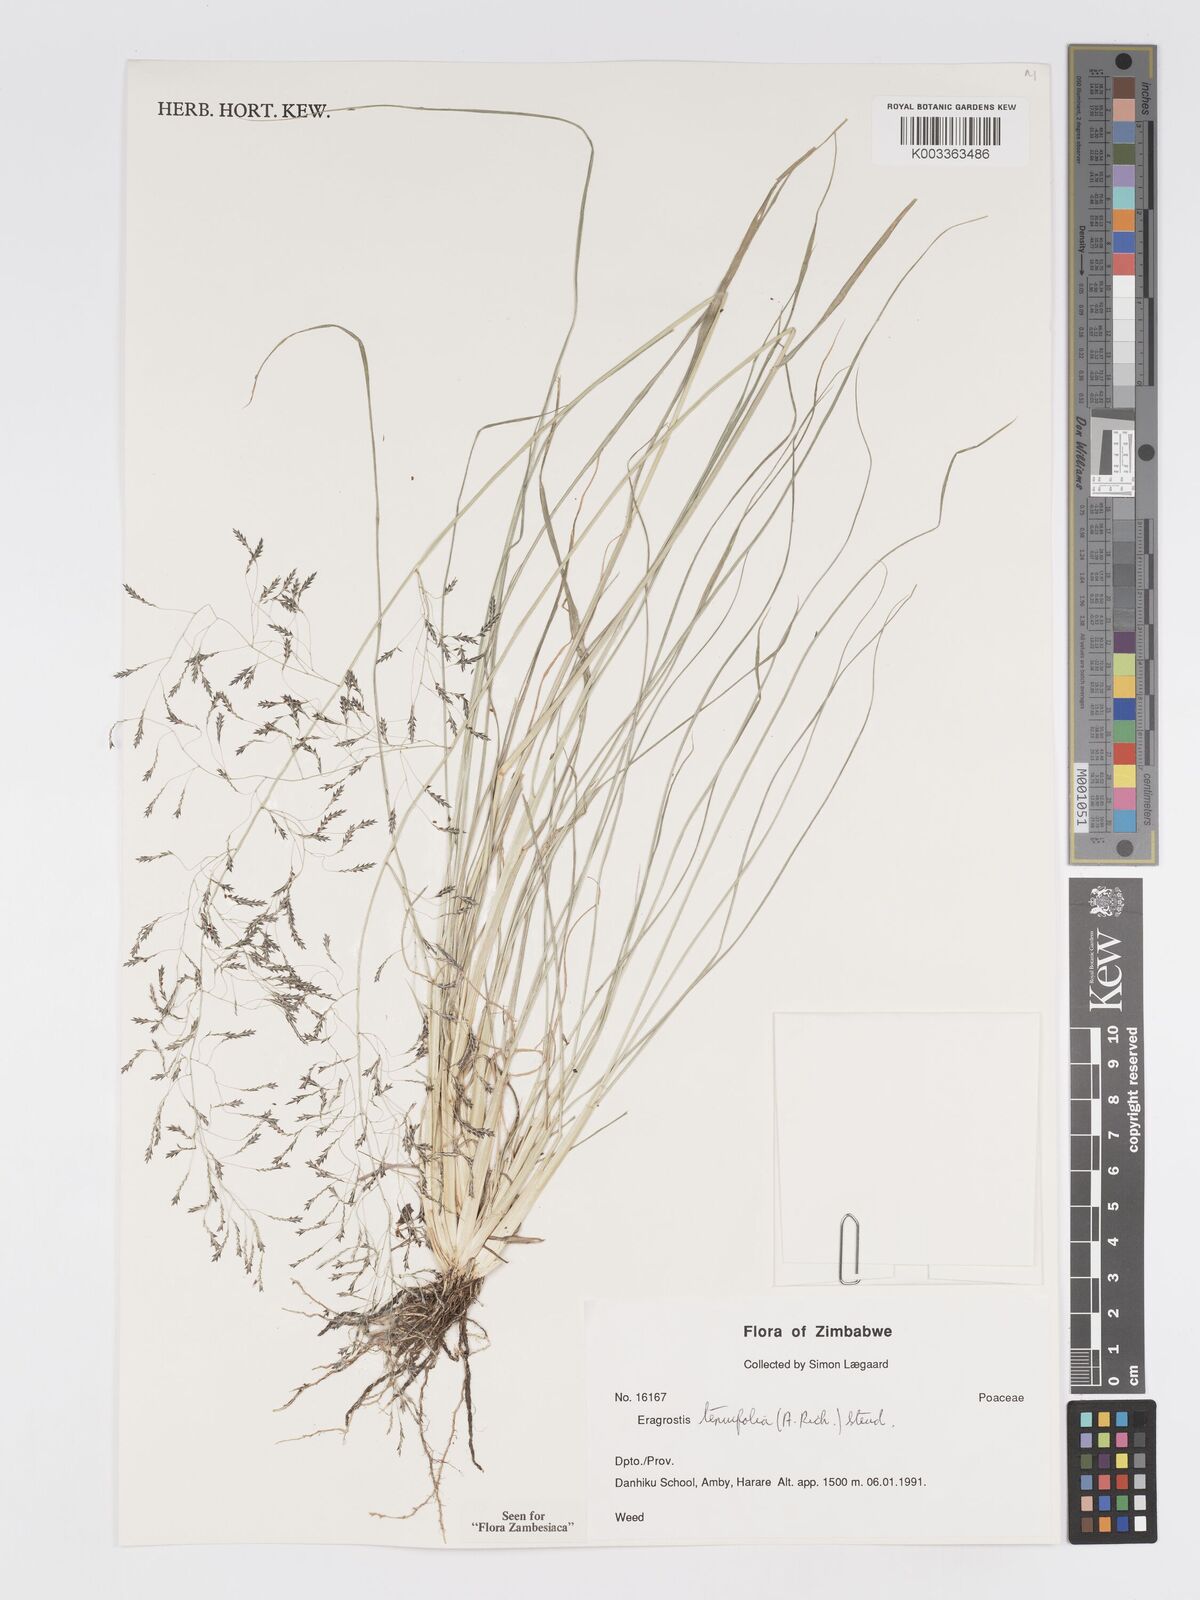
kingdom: Plantae
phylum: Tracheophyta
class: Liliopsida
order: Poales
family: Poaceae
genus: Eragrostis
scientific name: Eragrostis tenuifolia
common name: Elastic grass
